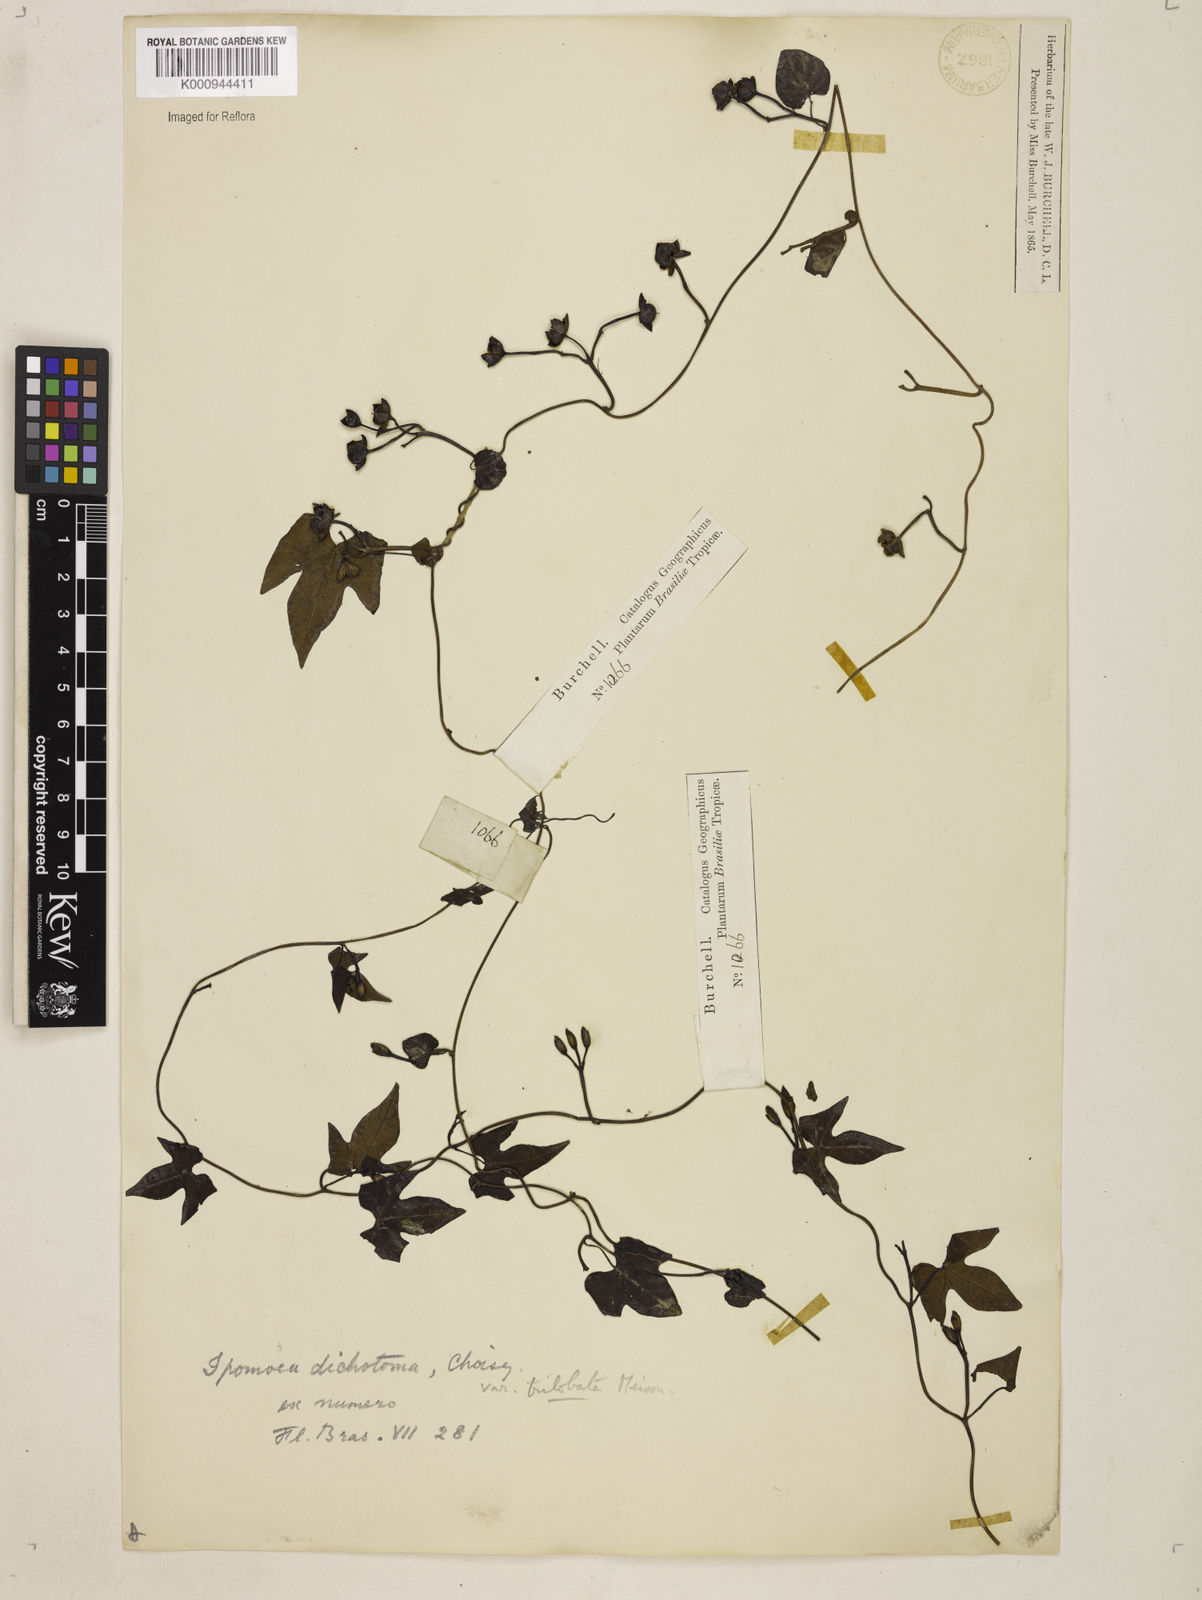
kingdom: Plantae
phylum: Tracheophyta
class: Magnoliopsida
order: Solanales
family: Convolvulaceae
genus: Ipomoea
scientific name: Ipomoea ramosissima
